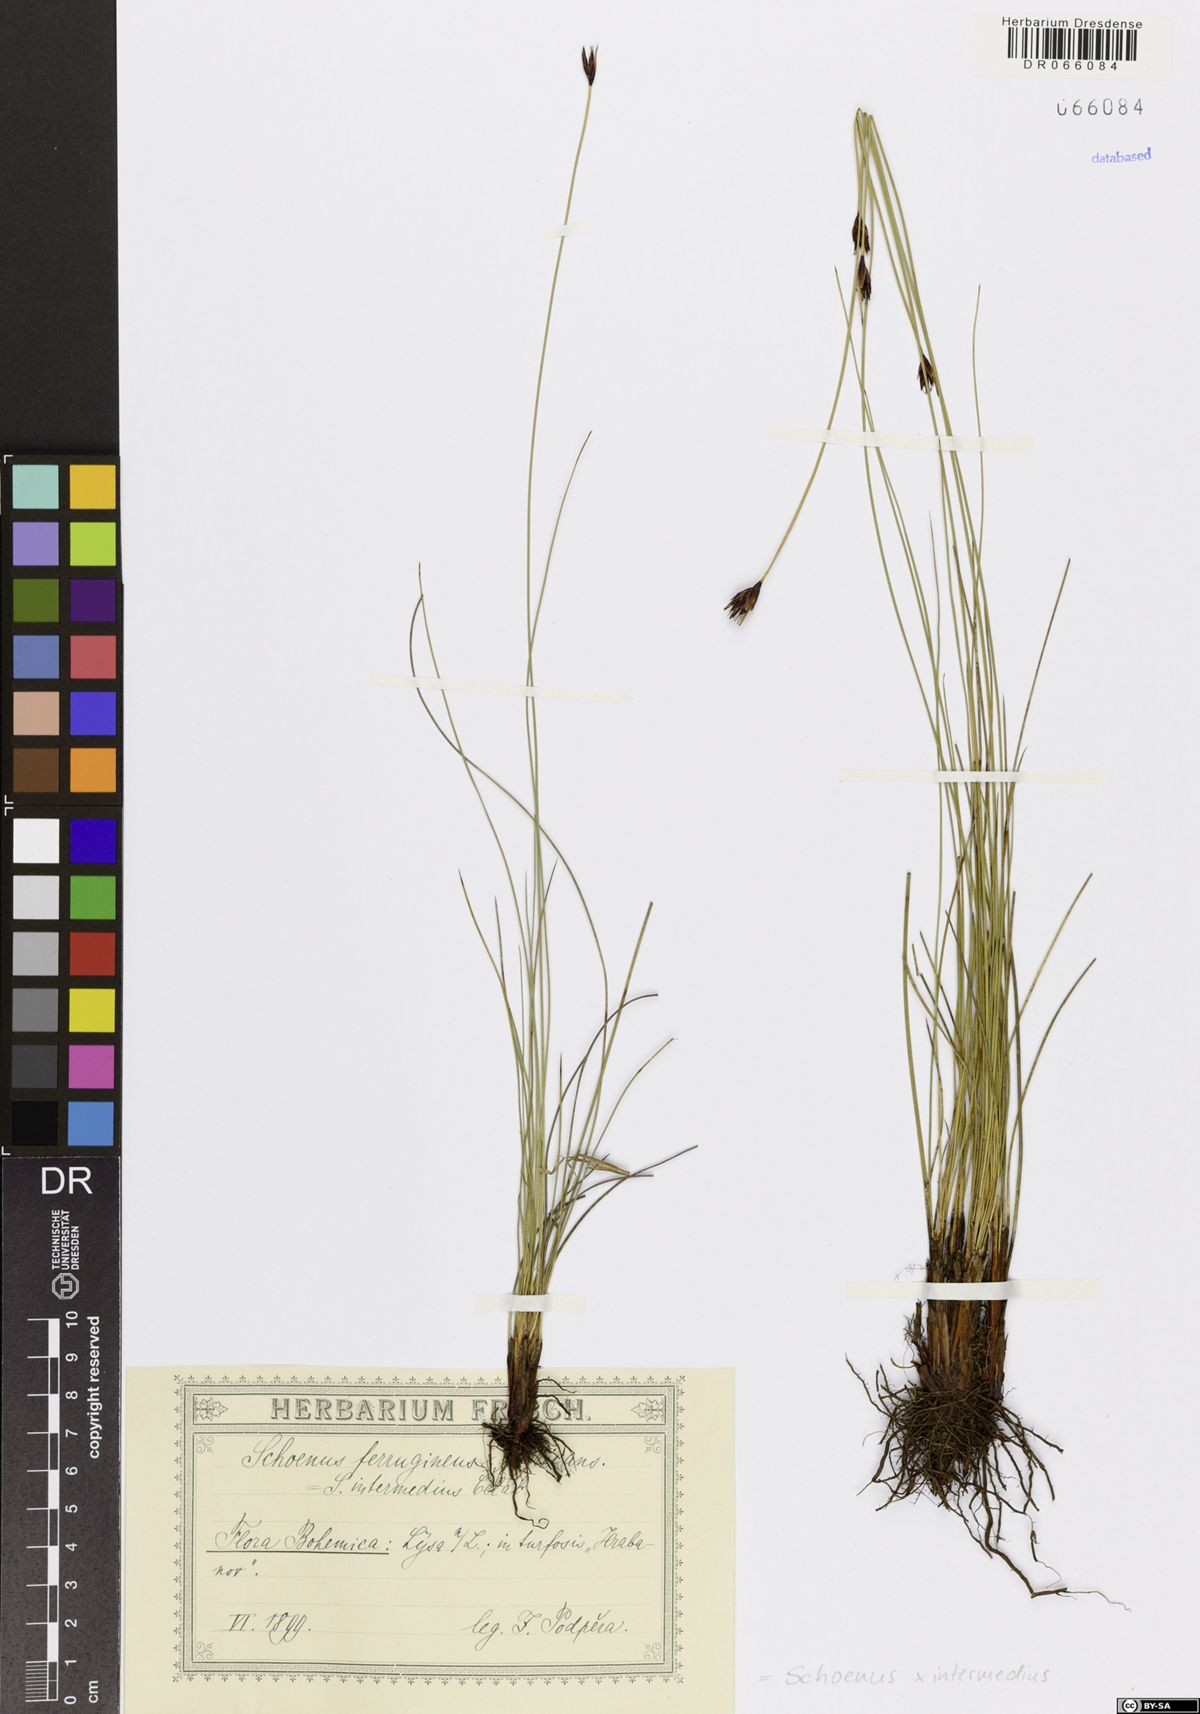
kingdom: Plantae
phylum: Tracheophyta
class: Liliopsida
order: Poales
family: Cyperaceae
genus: Schoenus
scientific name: Schoenus scheuchzeri
